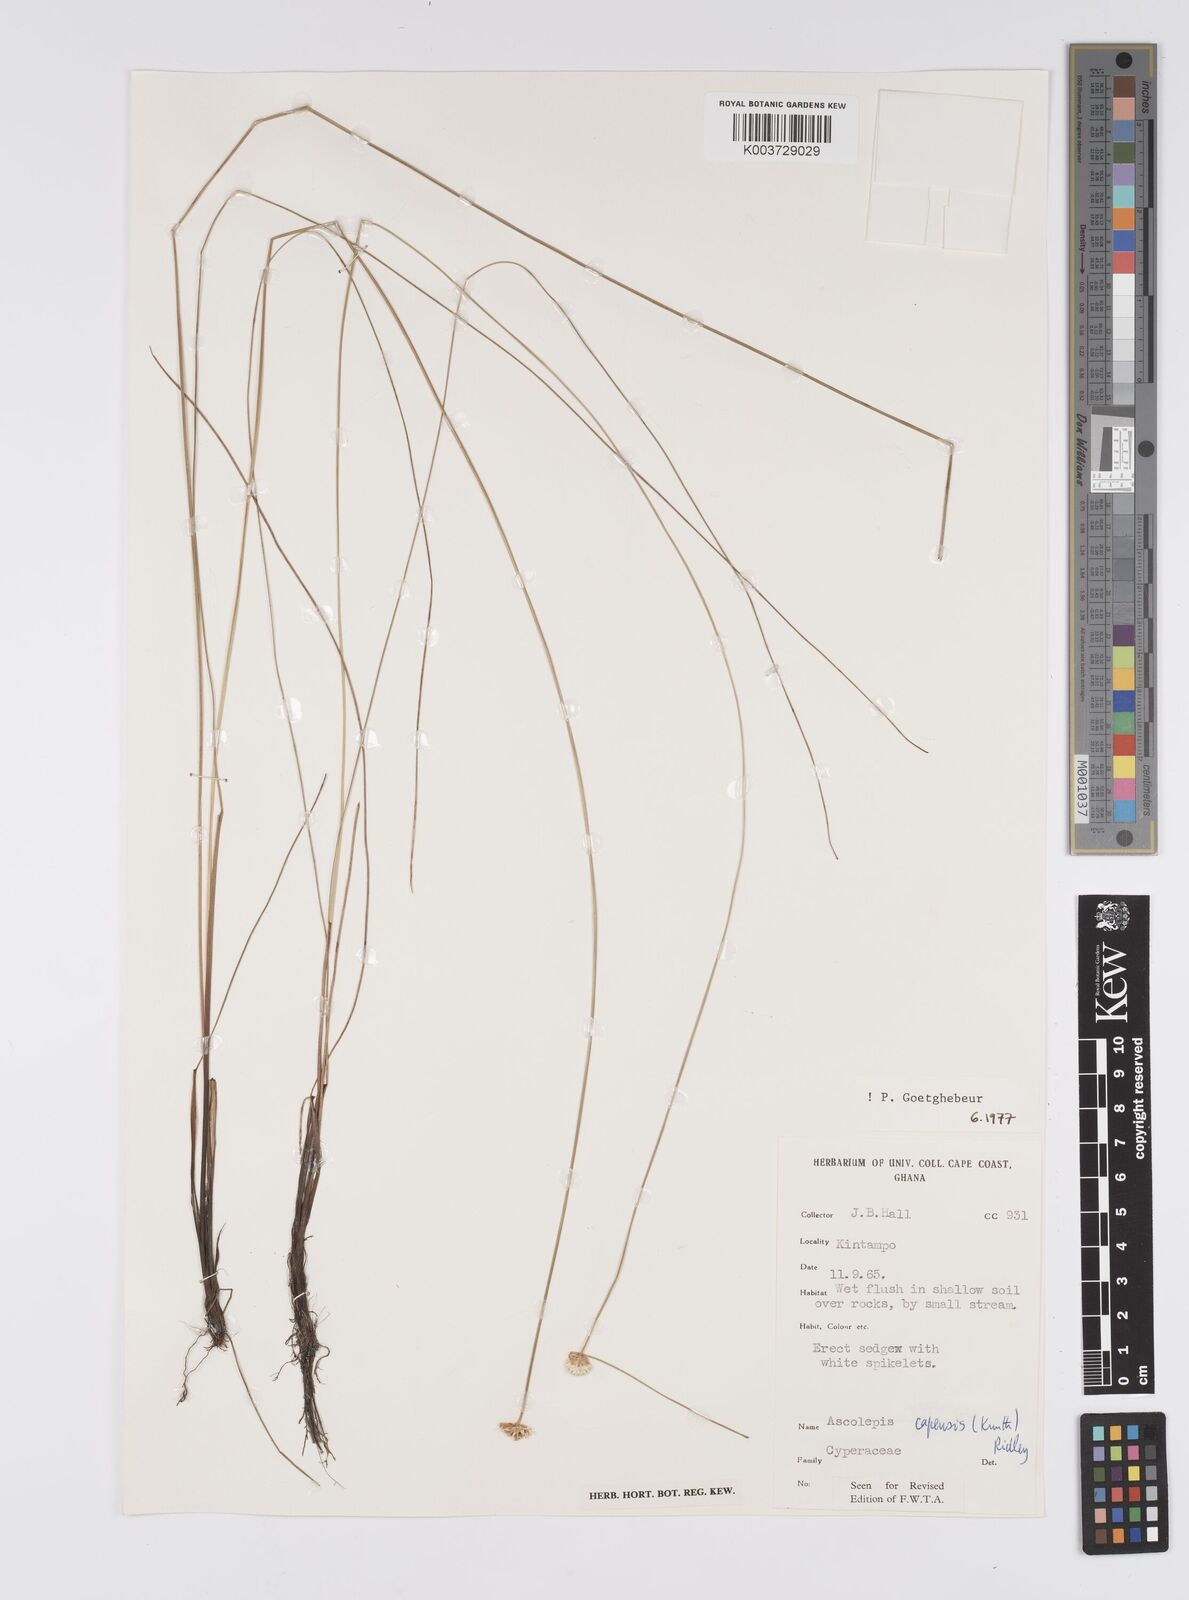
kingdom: Plantae
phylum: Tracheophyta
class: Liliopsida
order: Poales
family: Cyperaceae
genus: Ascolepis
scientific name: Ascolepis
